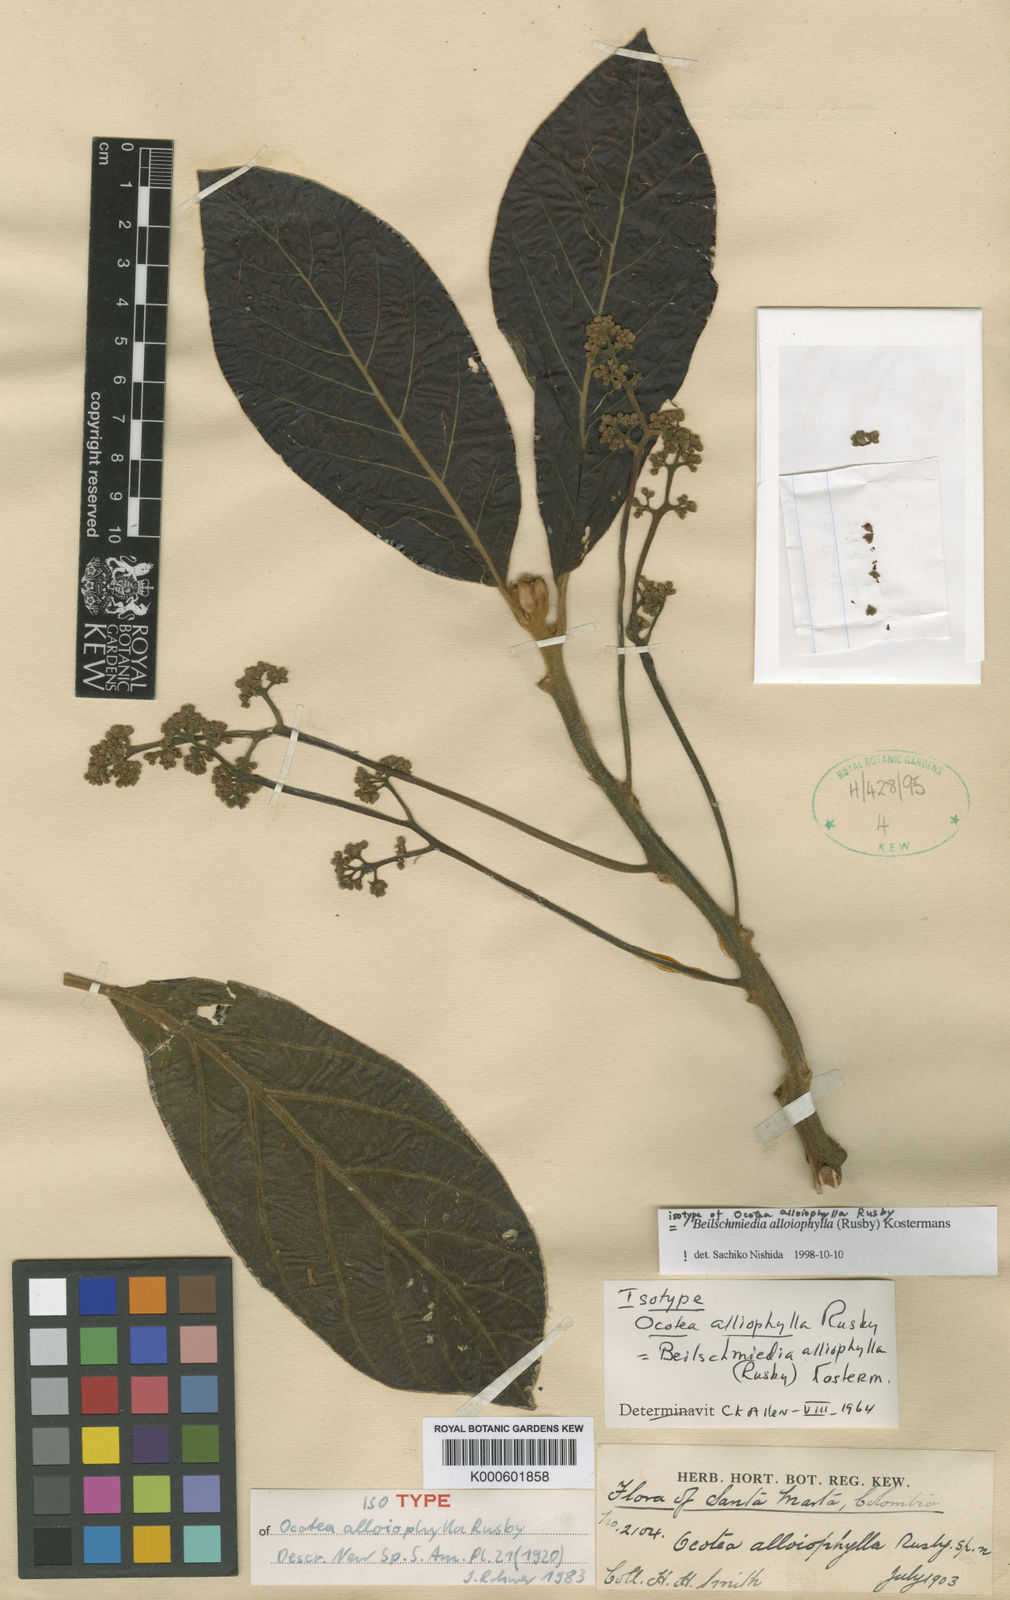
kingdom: Plantae
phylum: Tracheophyta
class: Magnoliopsida
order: Laurales
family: Lauraceae
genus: Beilschmiedia
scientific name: Beilschmiedia alloiophylla
